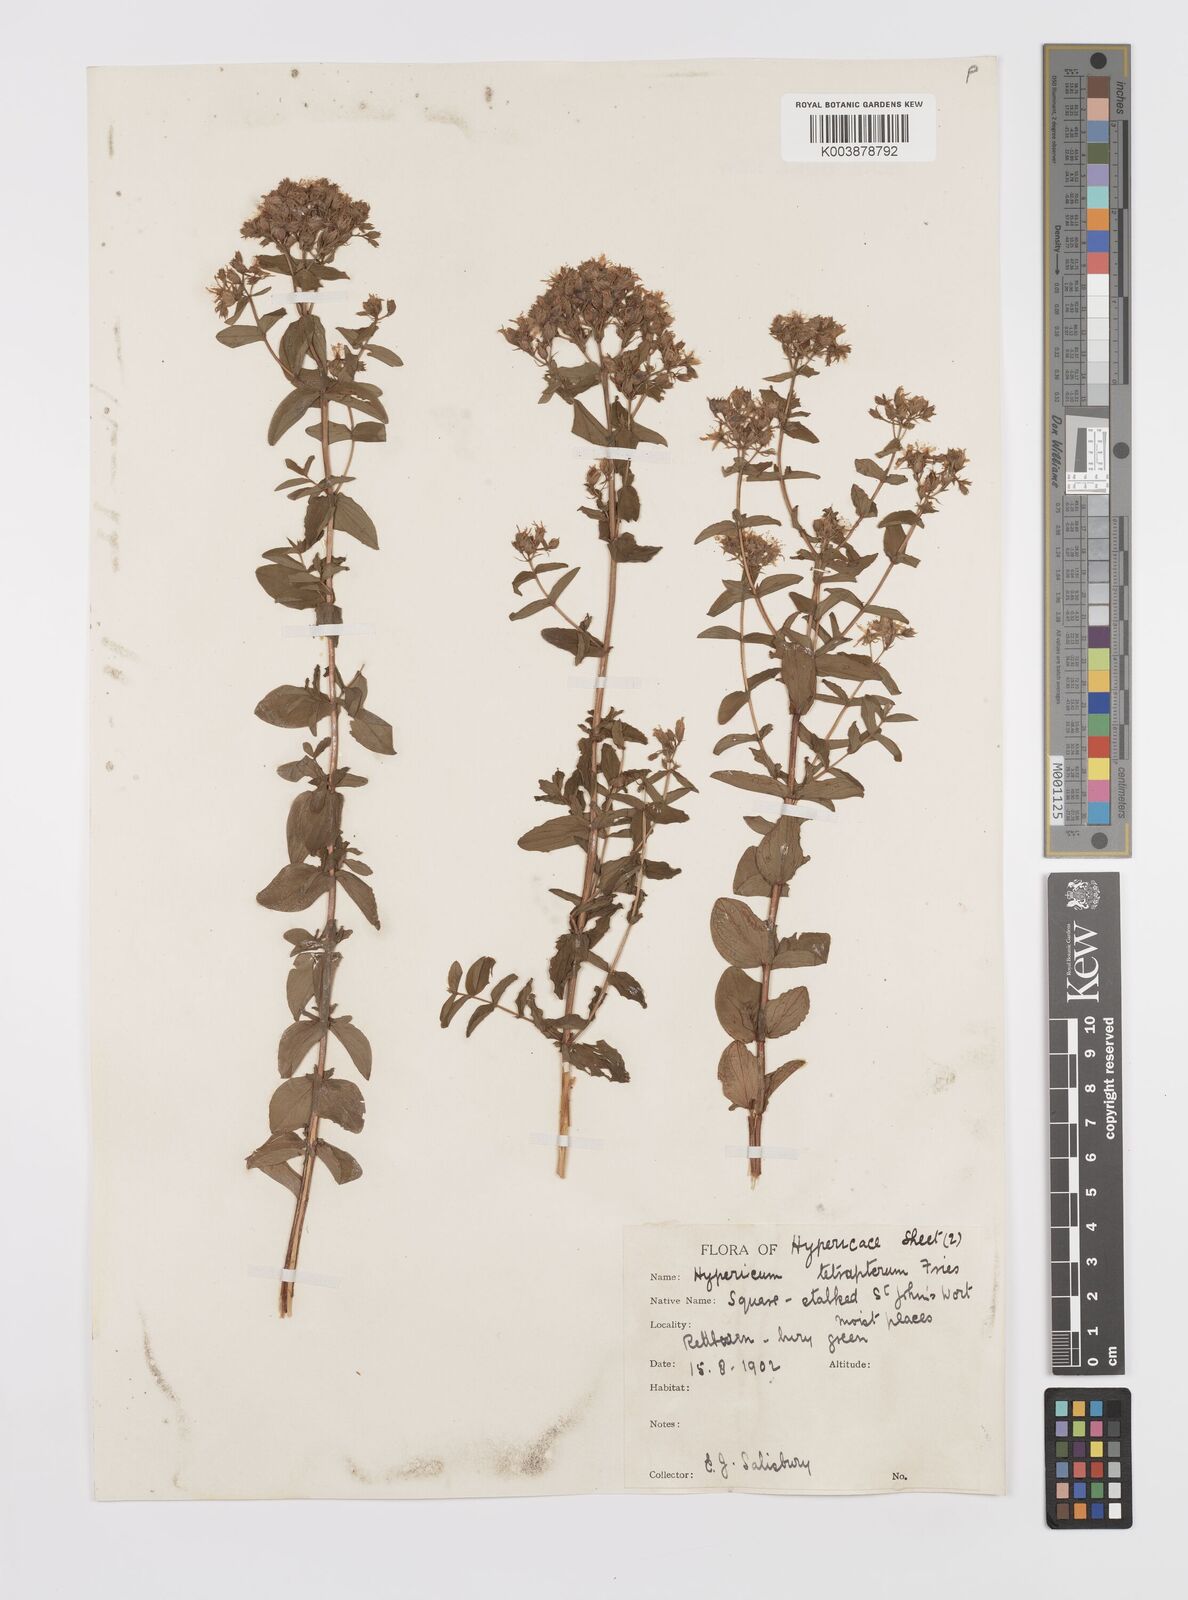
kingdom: Plantae
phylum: Tracheophyta
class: Magnoliopsida
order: Malpighiales
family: Hypericaceae
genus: Hypericum
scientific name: Hypericum tetrapterum
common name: Square-stalked st. john's-wort
